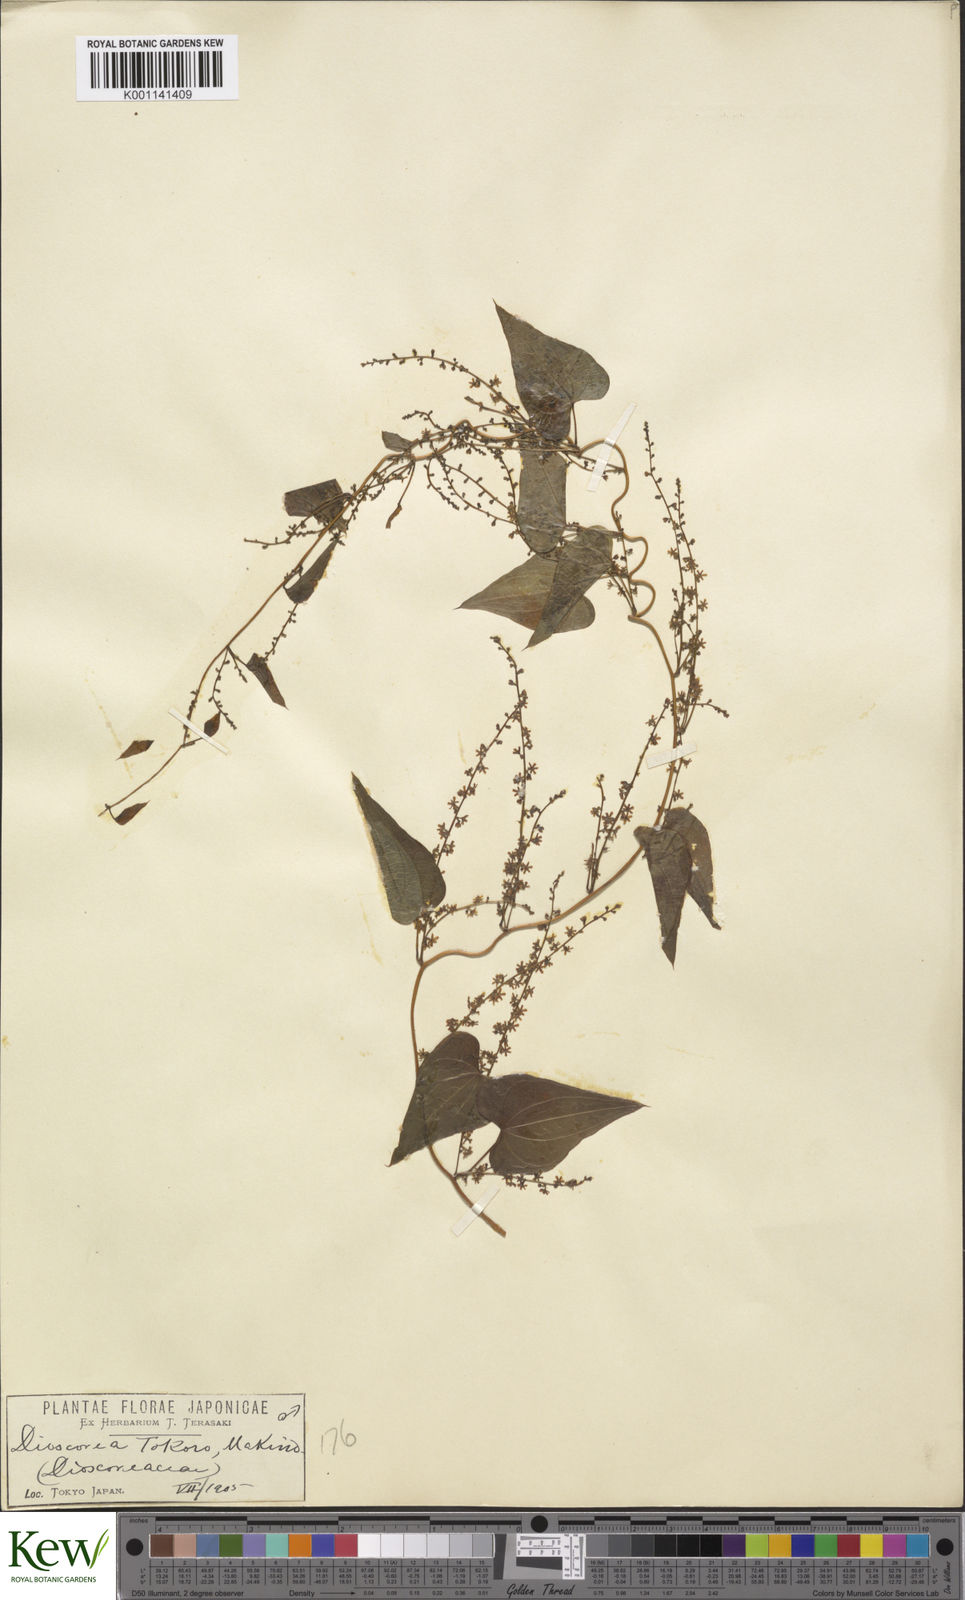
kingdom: Plantae
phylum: Tracheophyta
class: Liliopsida
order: Dioscoreales
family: Dioscoreaceae
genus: Dioscorea
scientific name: Dioscorea tokoro
